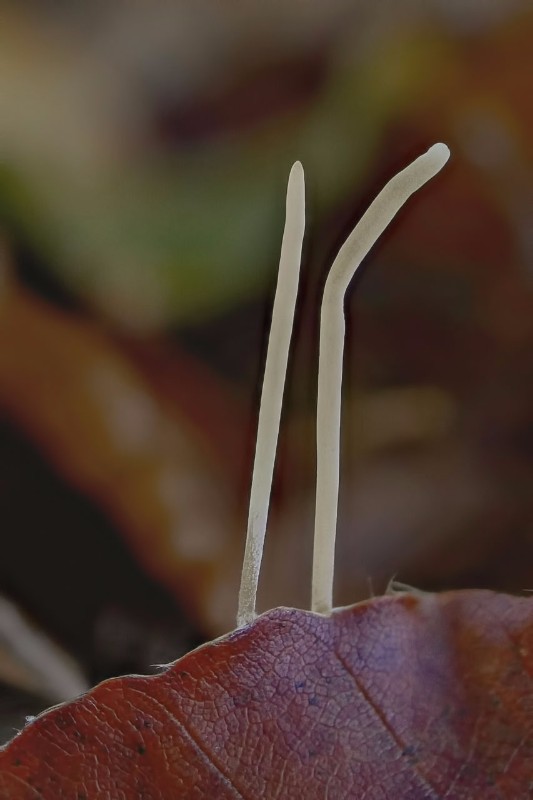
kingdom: Fungi
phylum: Basidiomycota
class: Agaricomycetes
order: Agaricales
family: Typhulaceae
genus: Typhula
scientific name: Typhula juncea
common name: trådagtig rørkølle
